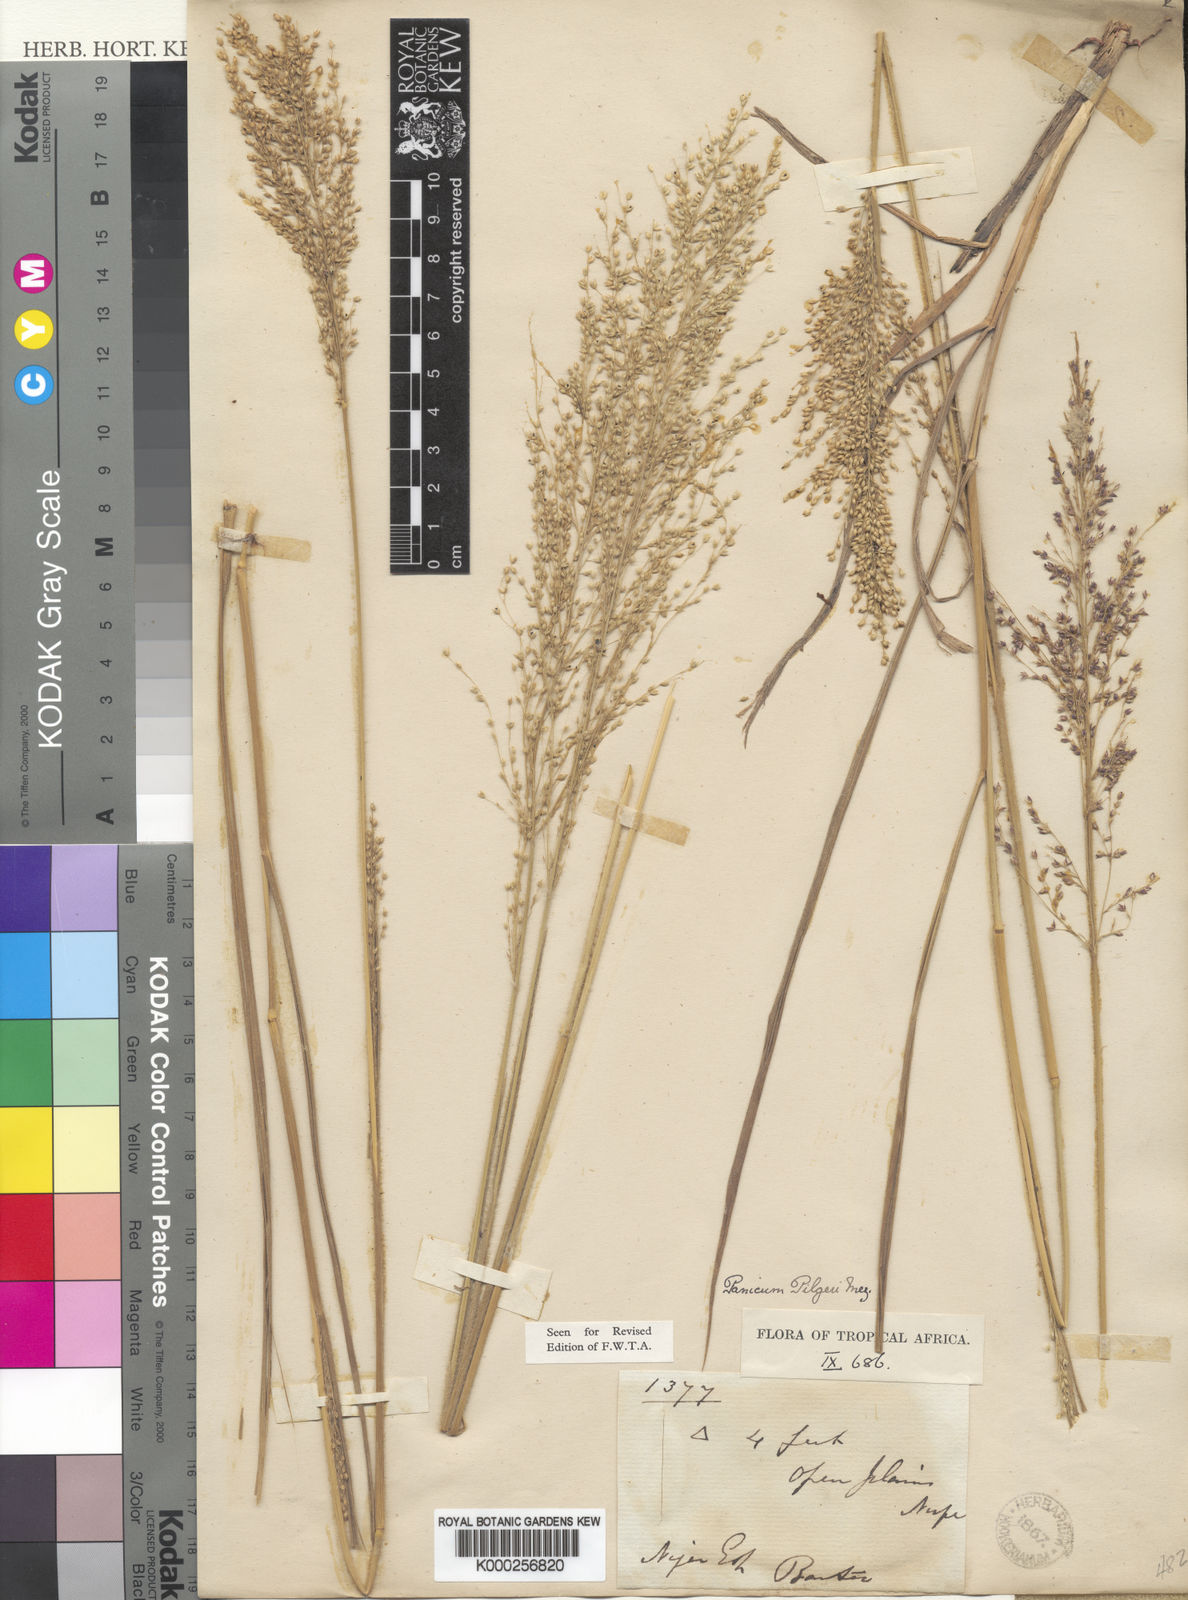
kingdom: Plantae
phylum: Tracheophyta
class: Liliopsida
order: Poales
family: Poaceae
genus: Panicum
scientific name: Panicum pilgeri
